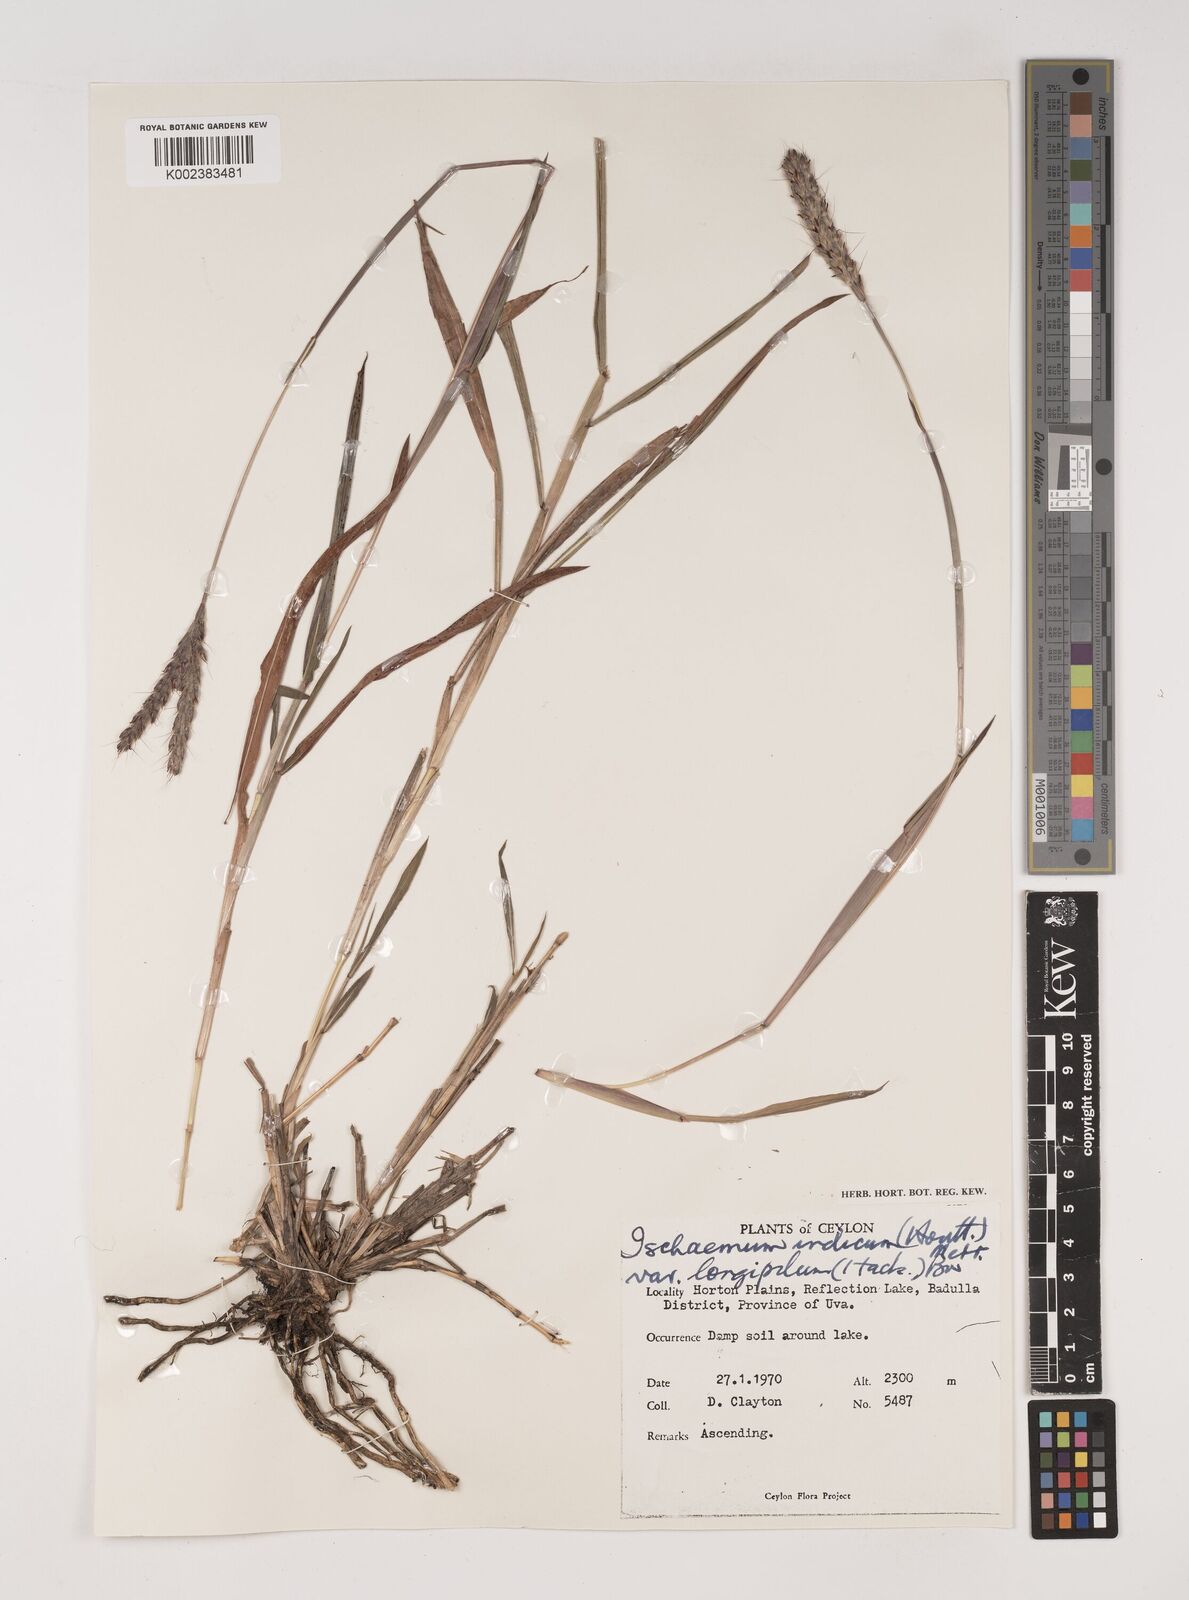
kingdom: Plantae
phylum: Tracheophyta
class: Liliopsida
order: Poales
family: Poaceae
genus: Polytrias
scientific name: Polytrias indica
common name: Indian murainagrass
